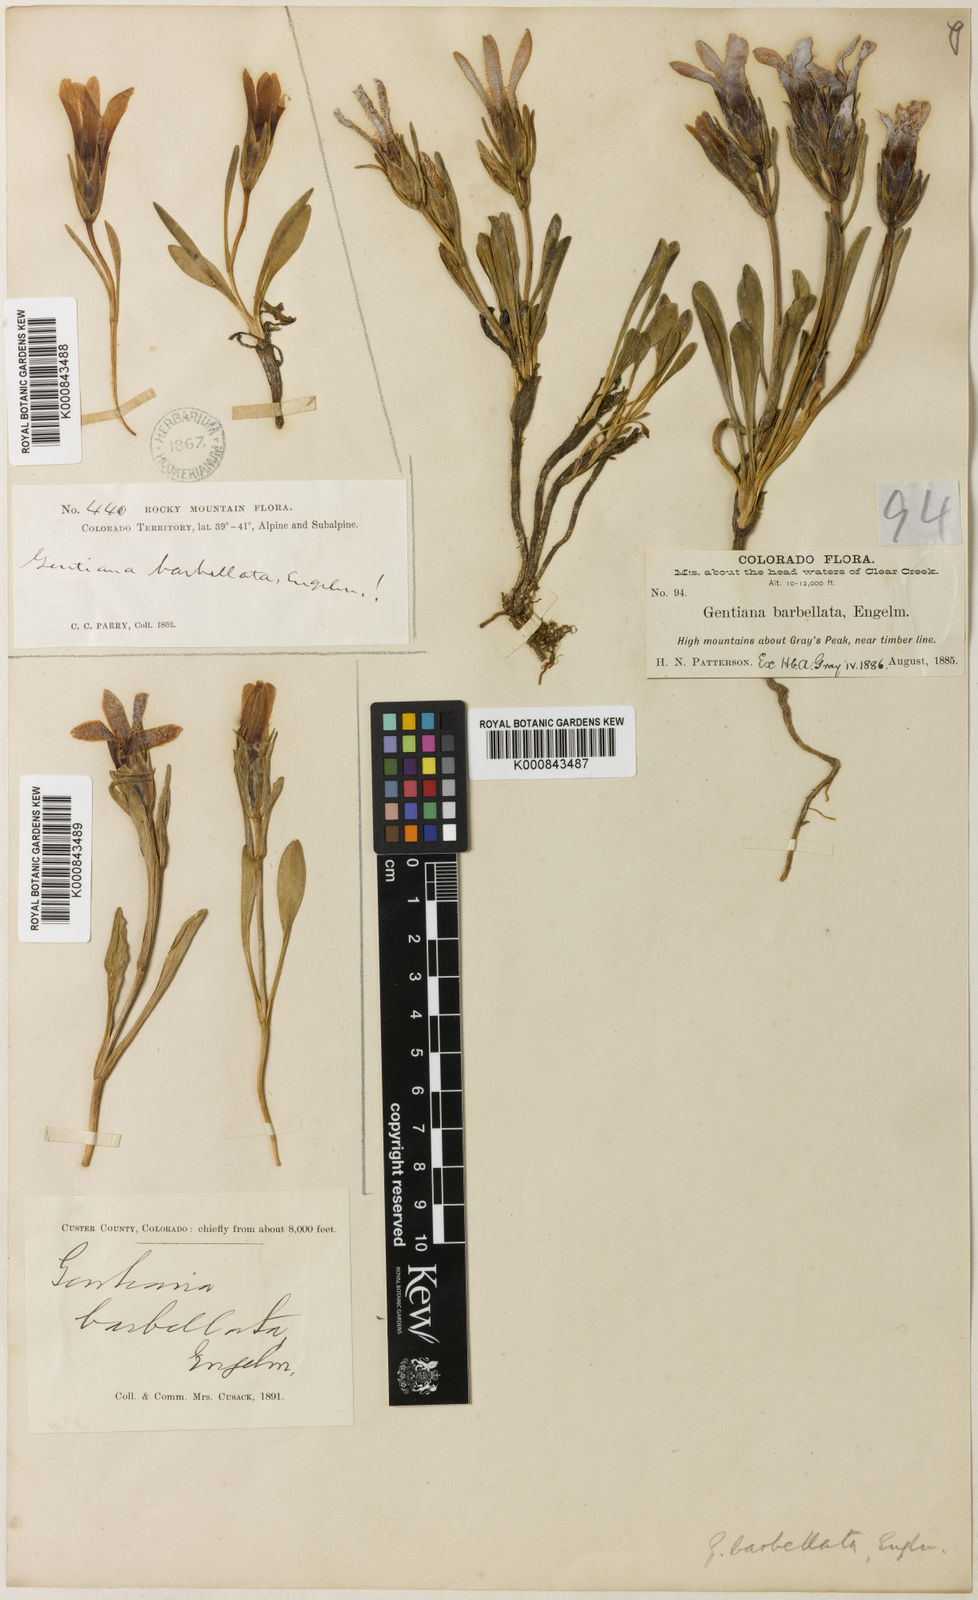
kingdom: Plantae
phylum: Tracheophyta
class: Magnoliopsida
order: Gentianales
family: Gentianaceae
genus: Gentianopsis
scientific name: Gentianopsis
